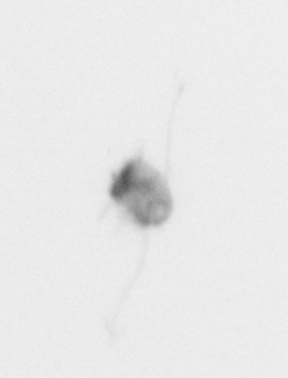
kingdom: Animalia
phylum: Arthropoda
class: Copepoda
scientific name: Copepoda
